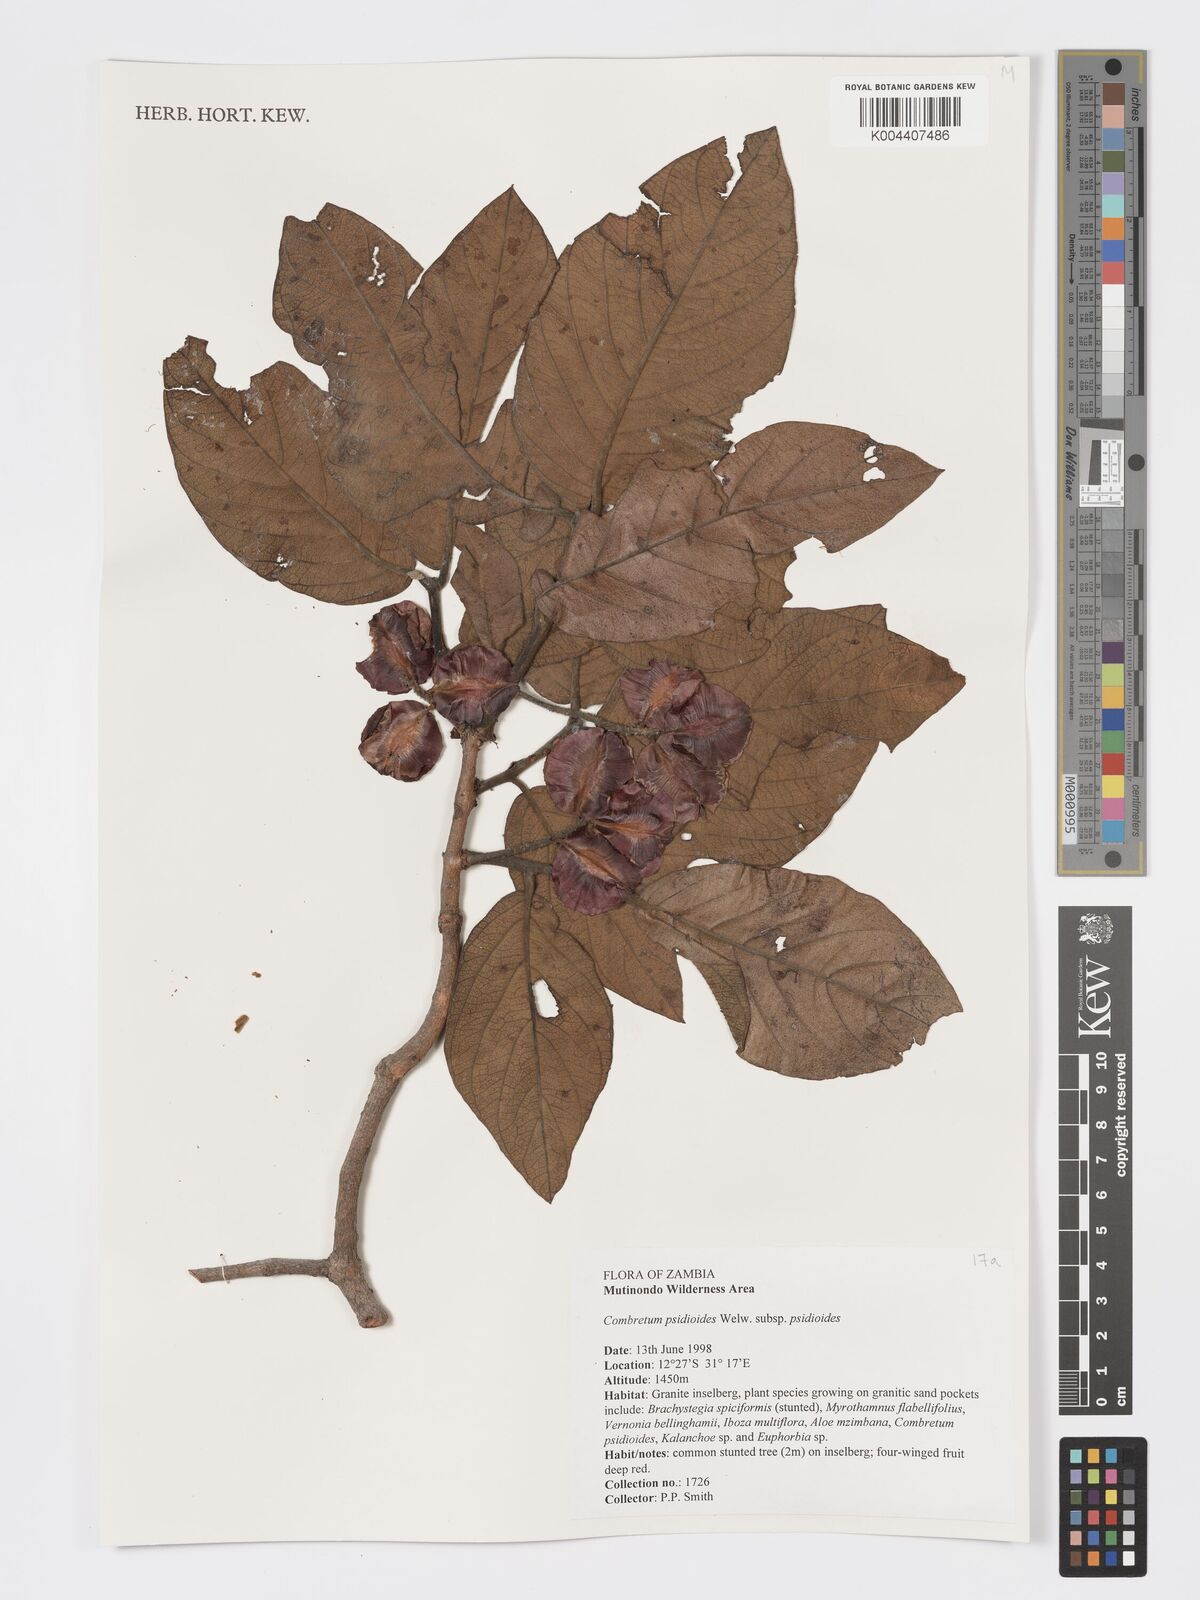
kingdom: Plantae
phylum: Tracheophyta
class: Magnoliopsida
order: Myrtales
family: Combretaceae
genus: Combretum
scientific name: Combretum psidioides
